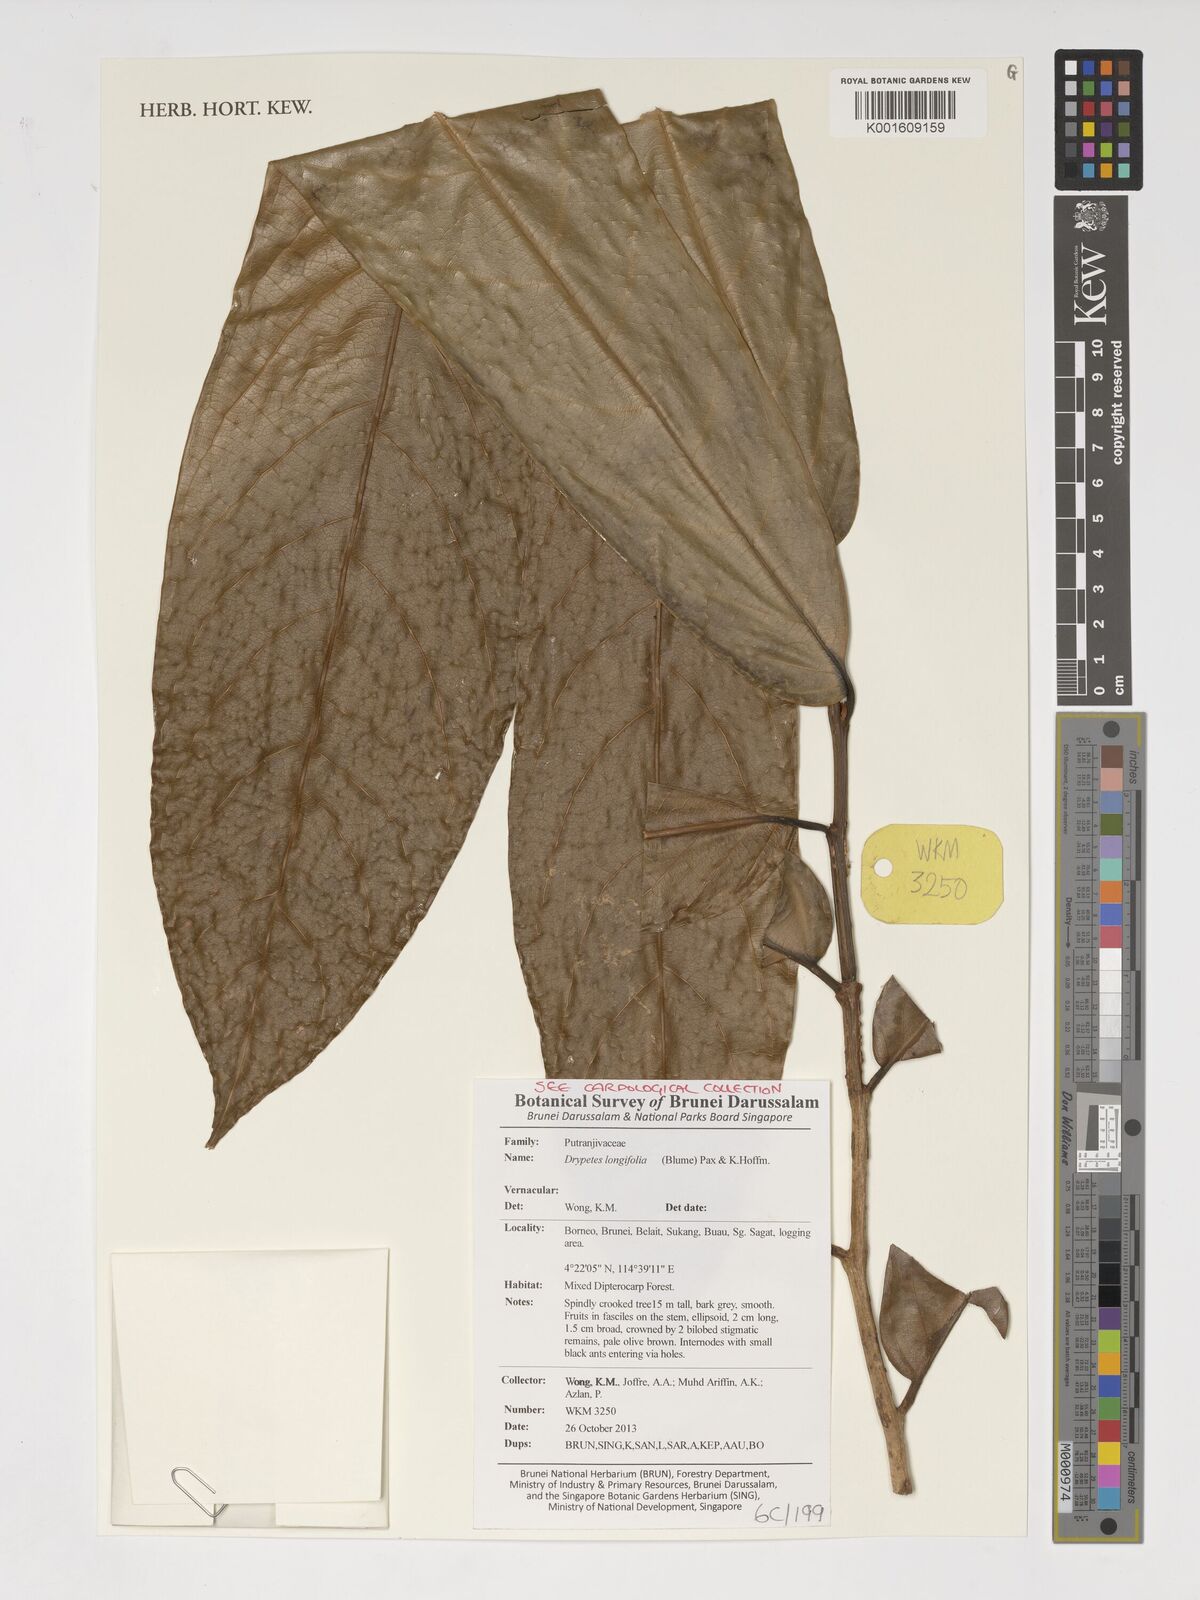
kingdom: Plantae
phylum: Tracheophyta
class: Magnoliopsida
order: Malpighiales
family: Putranjivaceae
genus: Drypetes
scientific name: Drypetes longifolia
